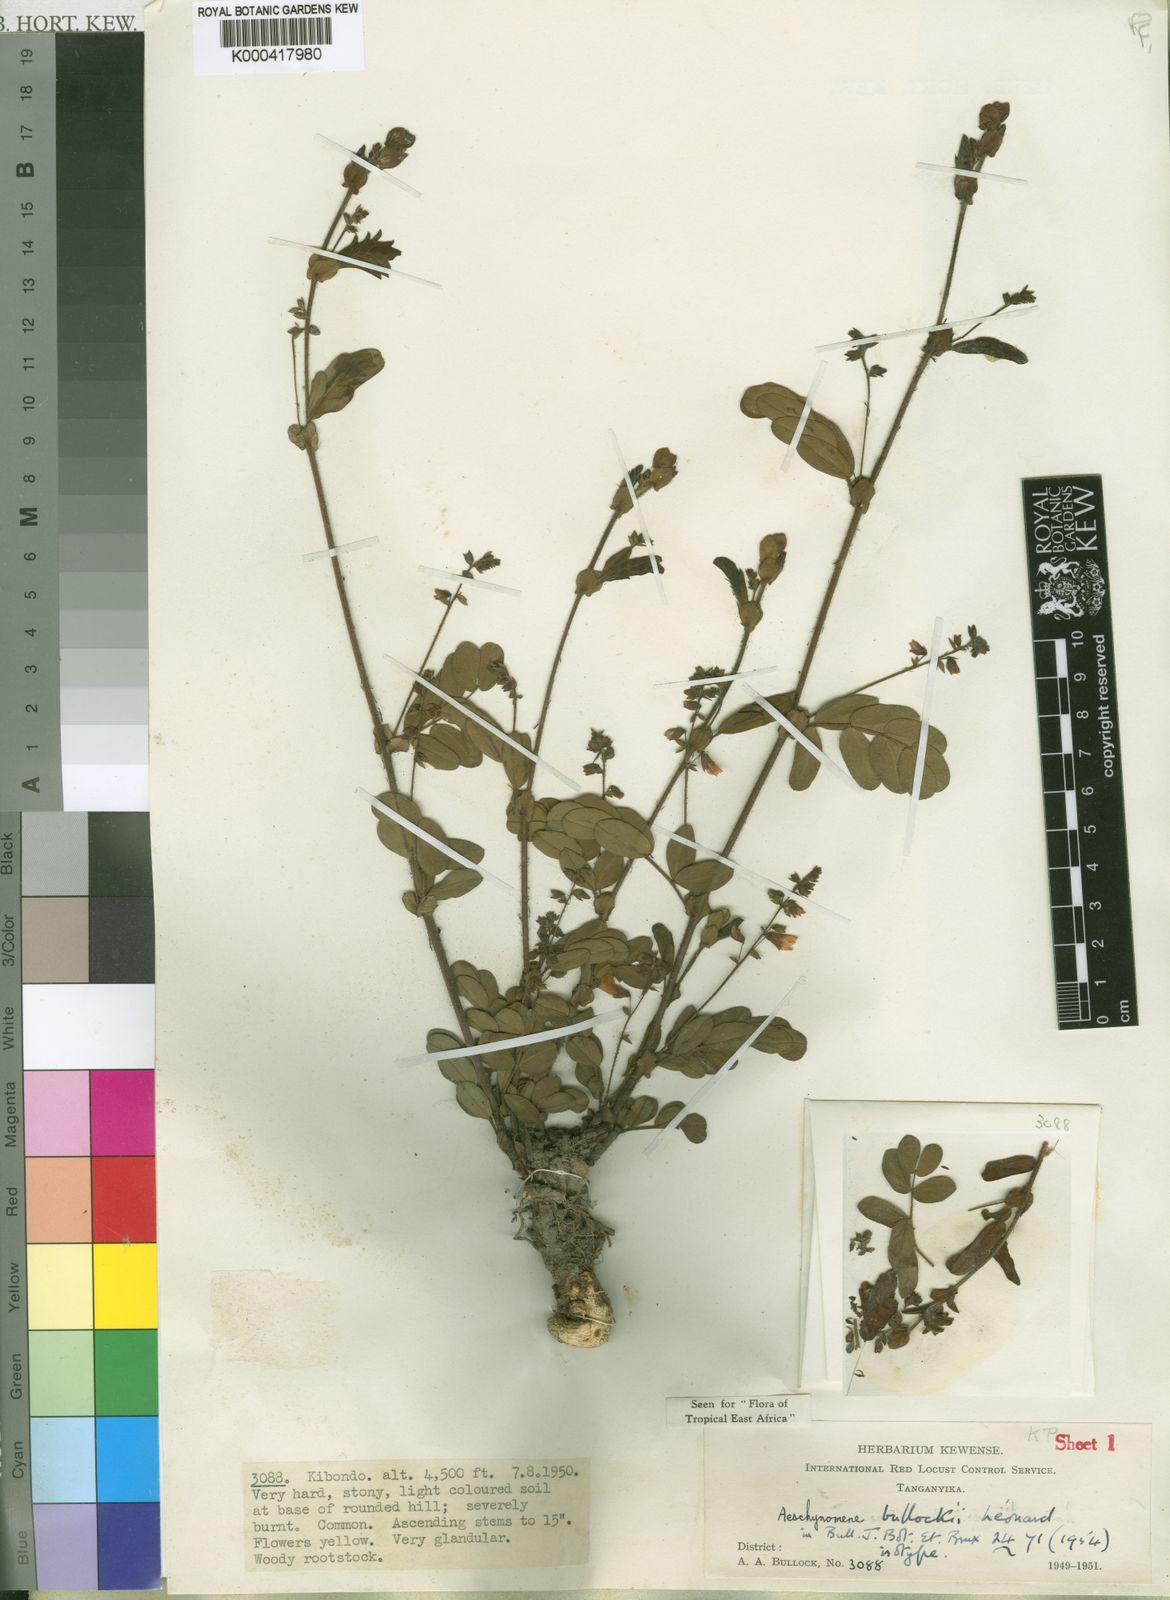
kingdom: Plantae
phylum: Tracheophyta
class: Magnoliopsida
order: Fabales
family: Fabaceae
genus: Aeschynomene
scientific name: Aeschynomene
